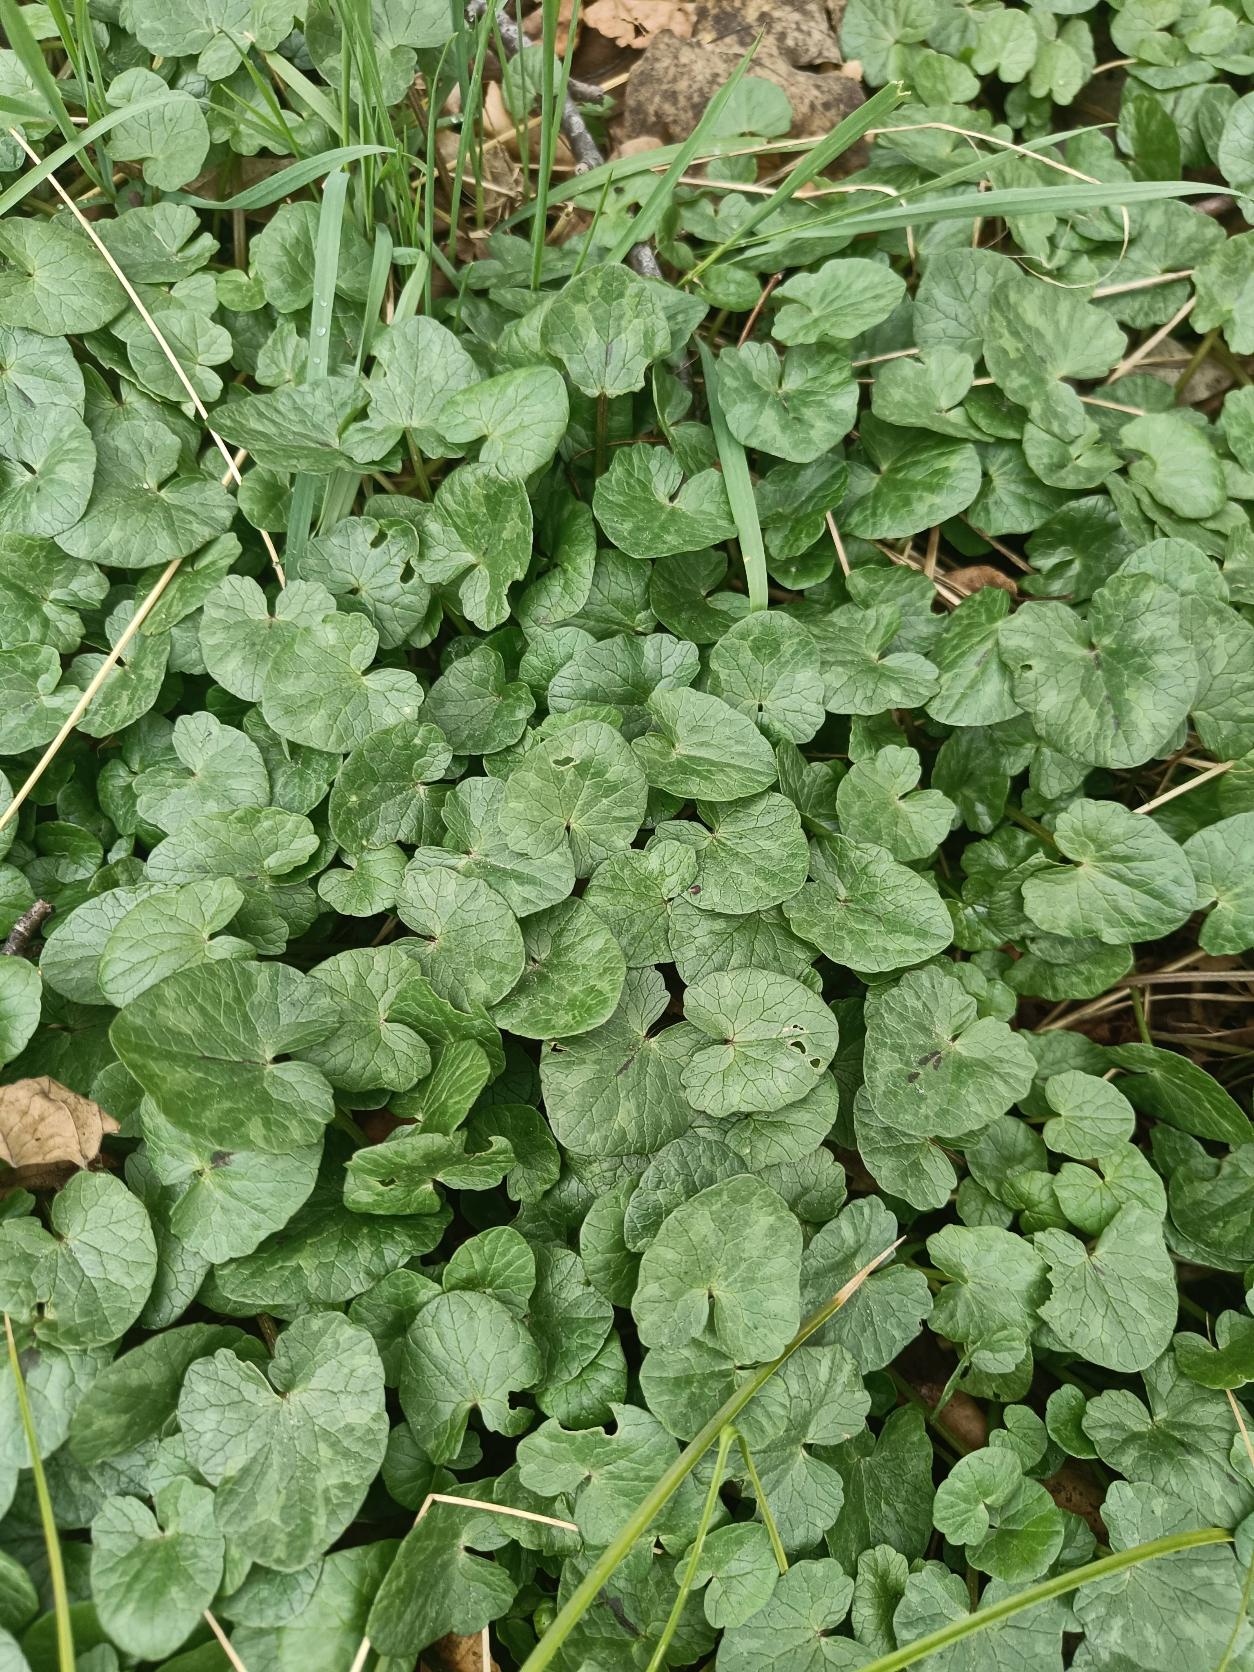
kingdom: Plantae
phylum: Tracheophyta
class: Magnoliopsida
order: Ranunculales
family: Ranunculaceae
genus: Ficaria
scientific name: Ficaria verna
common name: Vorterod
